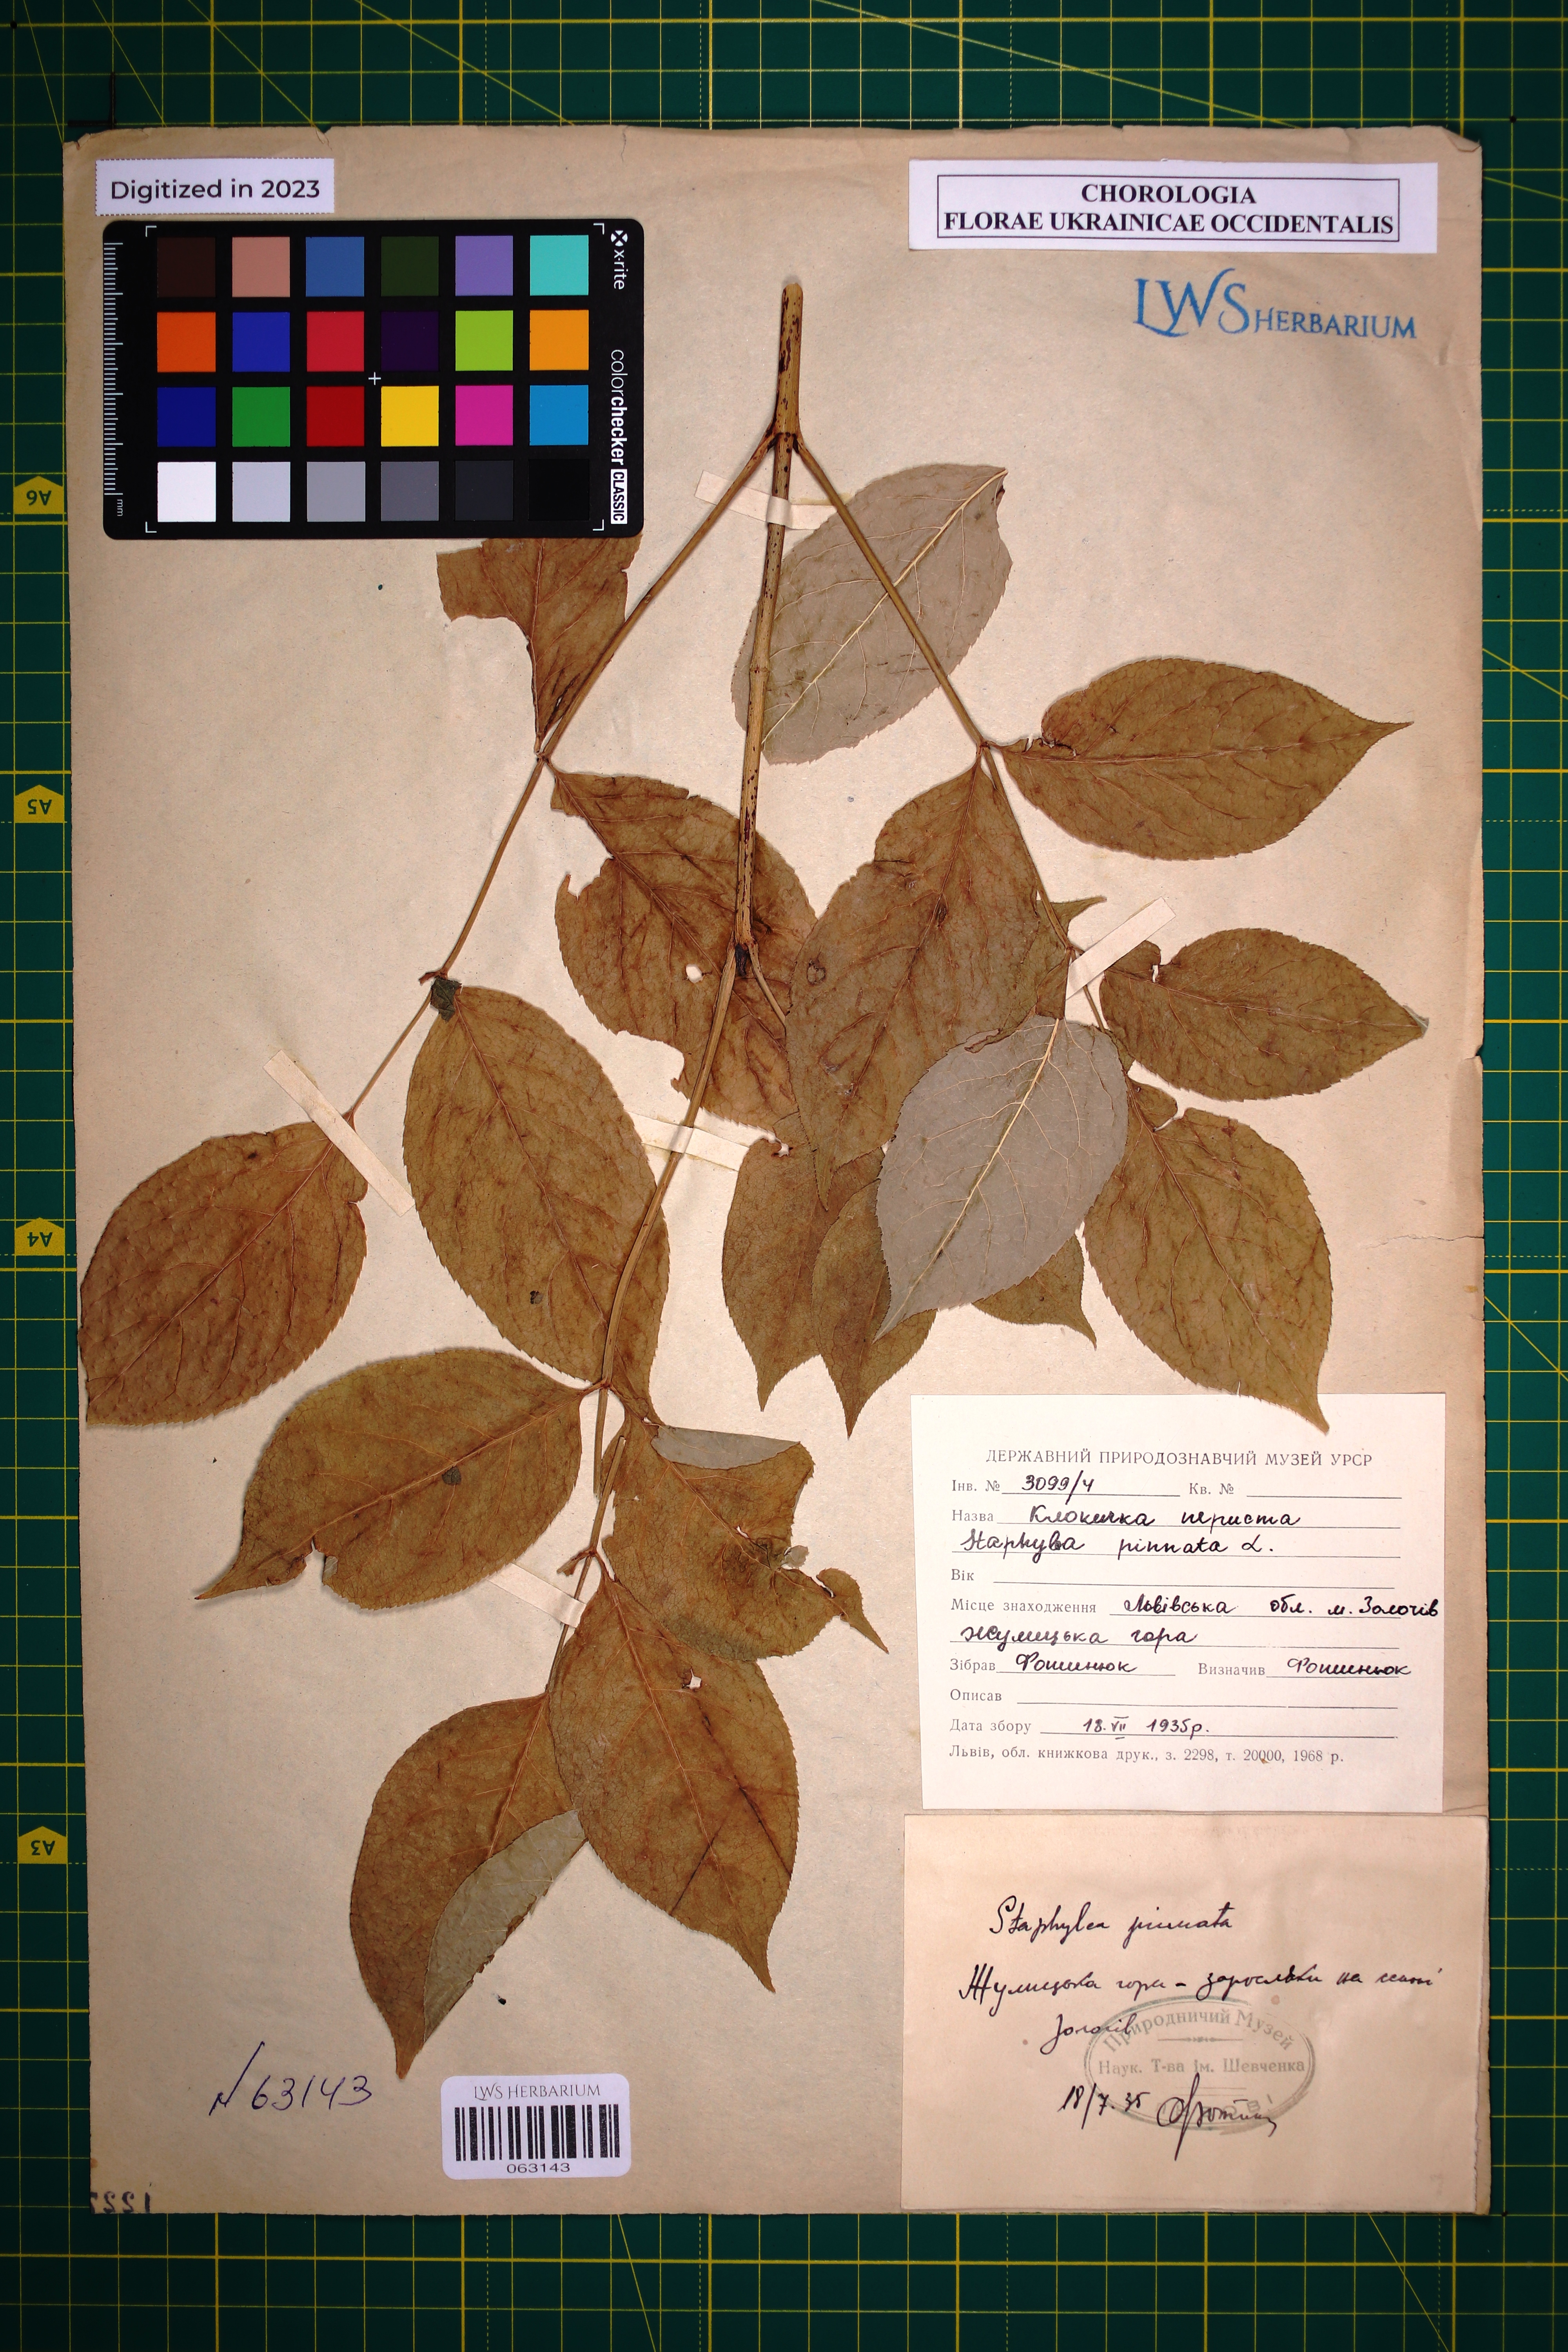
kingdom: Plantae
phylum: Tracheophyta
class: Magnoliopsida
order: Crossosomatales
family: Staphyleaceae
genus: Staphylea
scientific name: Staphylea pinnata
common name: Bladdernut
